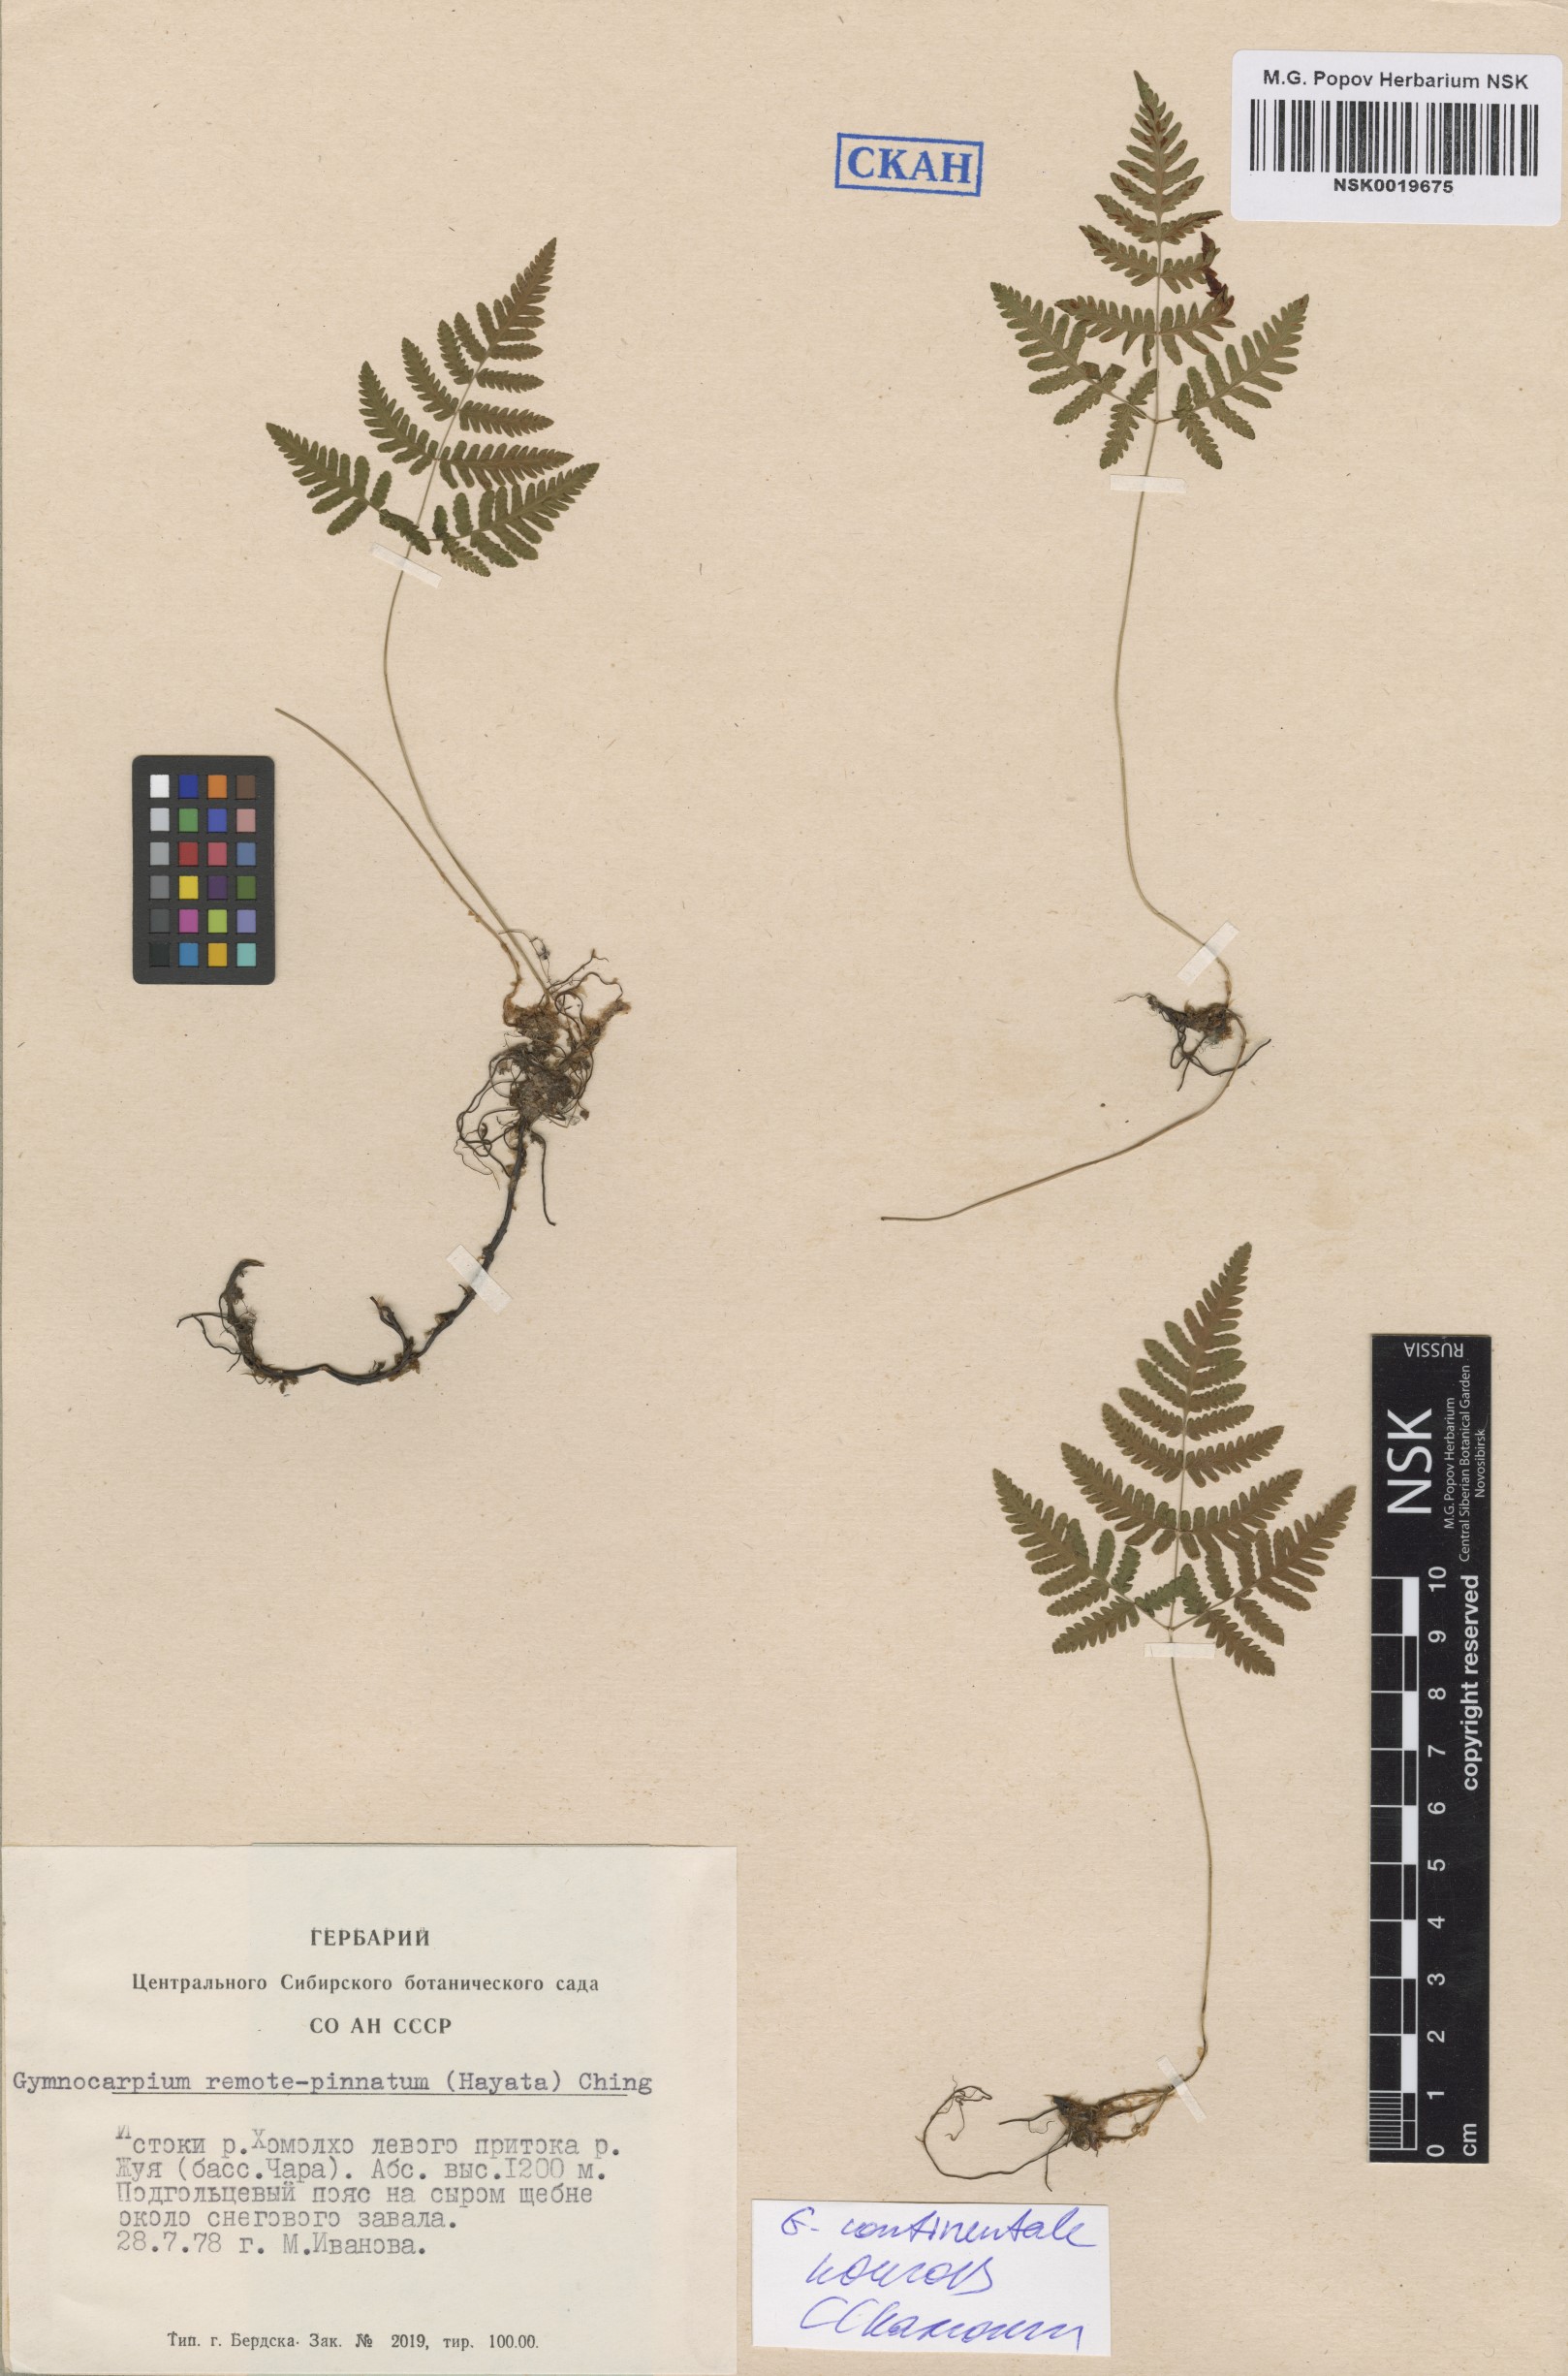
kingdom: Plantae
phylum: Tracheophyta
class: Polypodiopsida
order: Polypodiales
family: Cystopteridaceae
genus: Gymnocarpium
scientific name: Gymnocarpium continentale
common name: Asian oak fern
